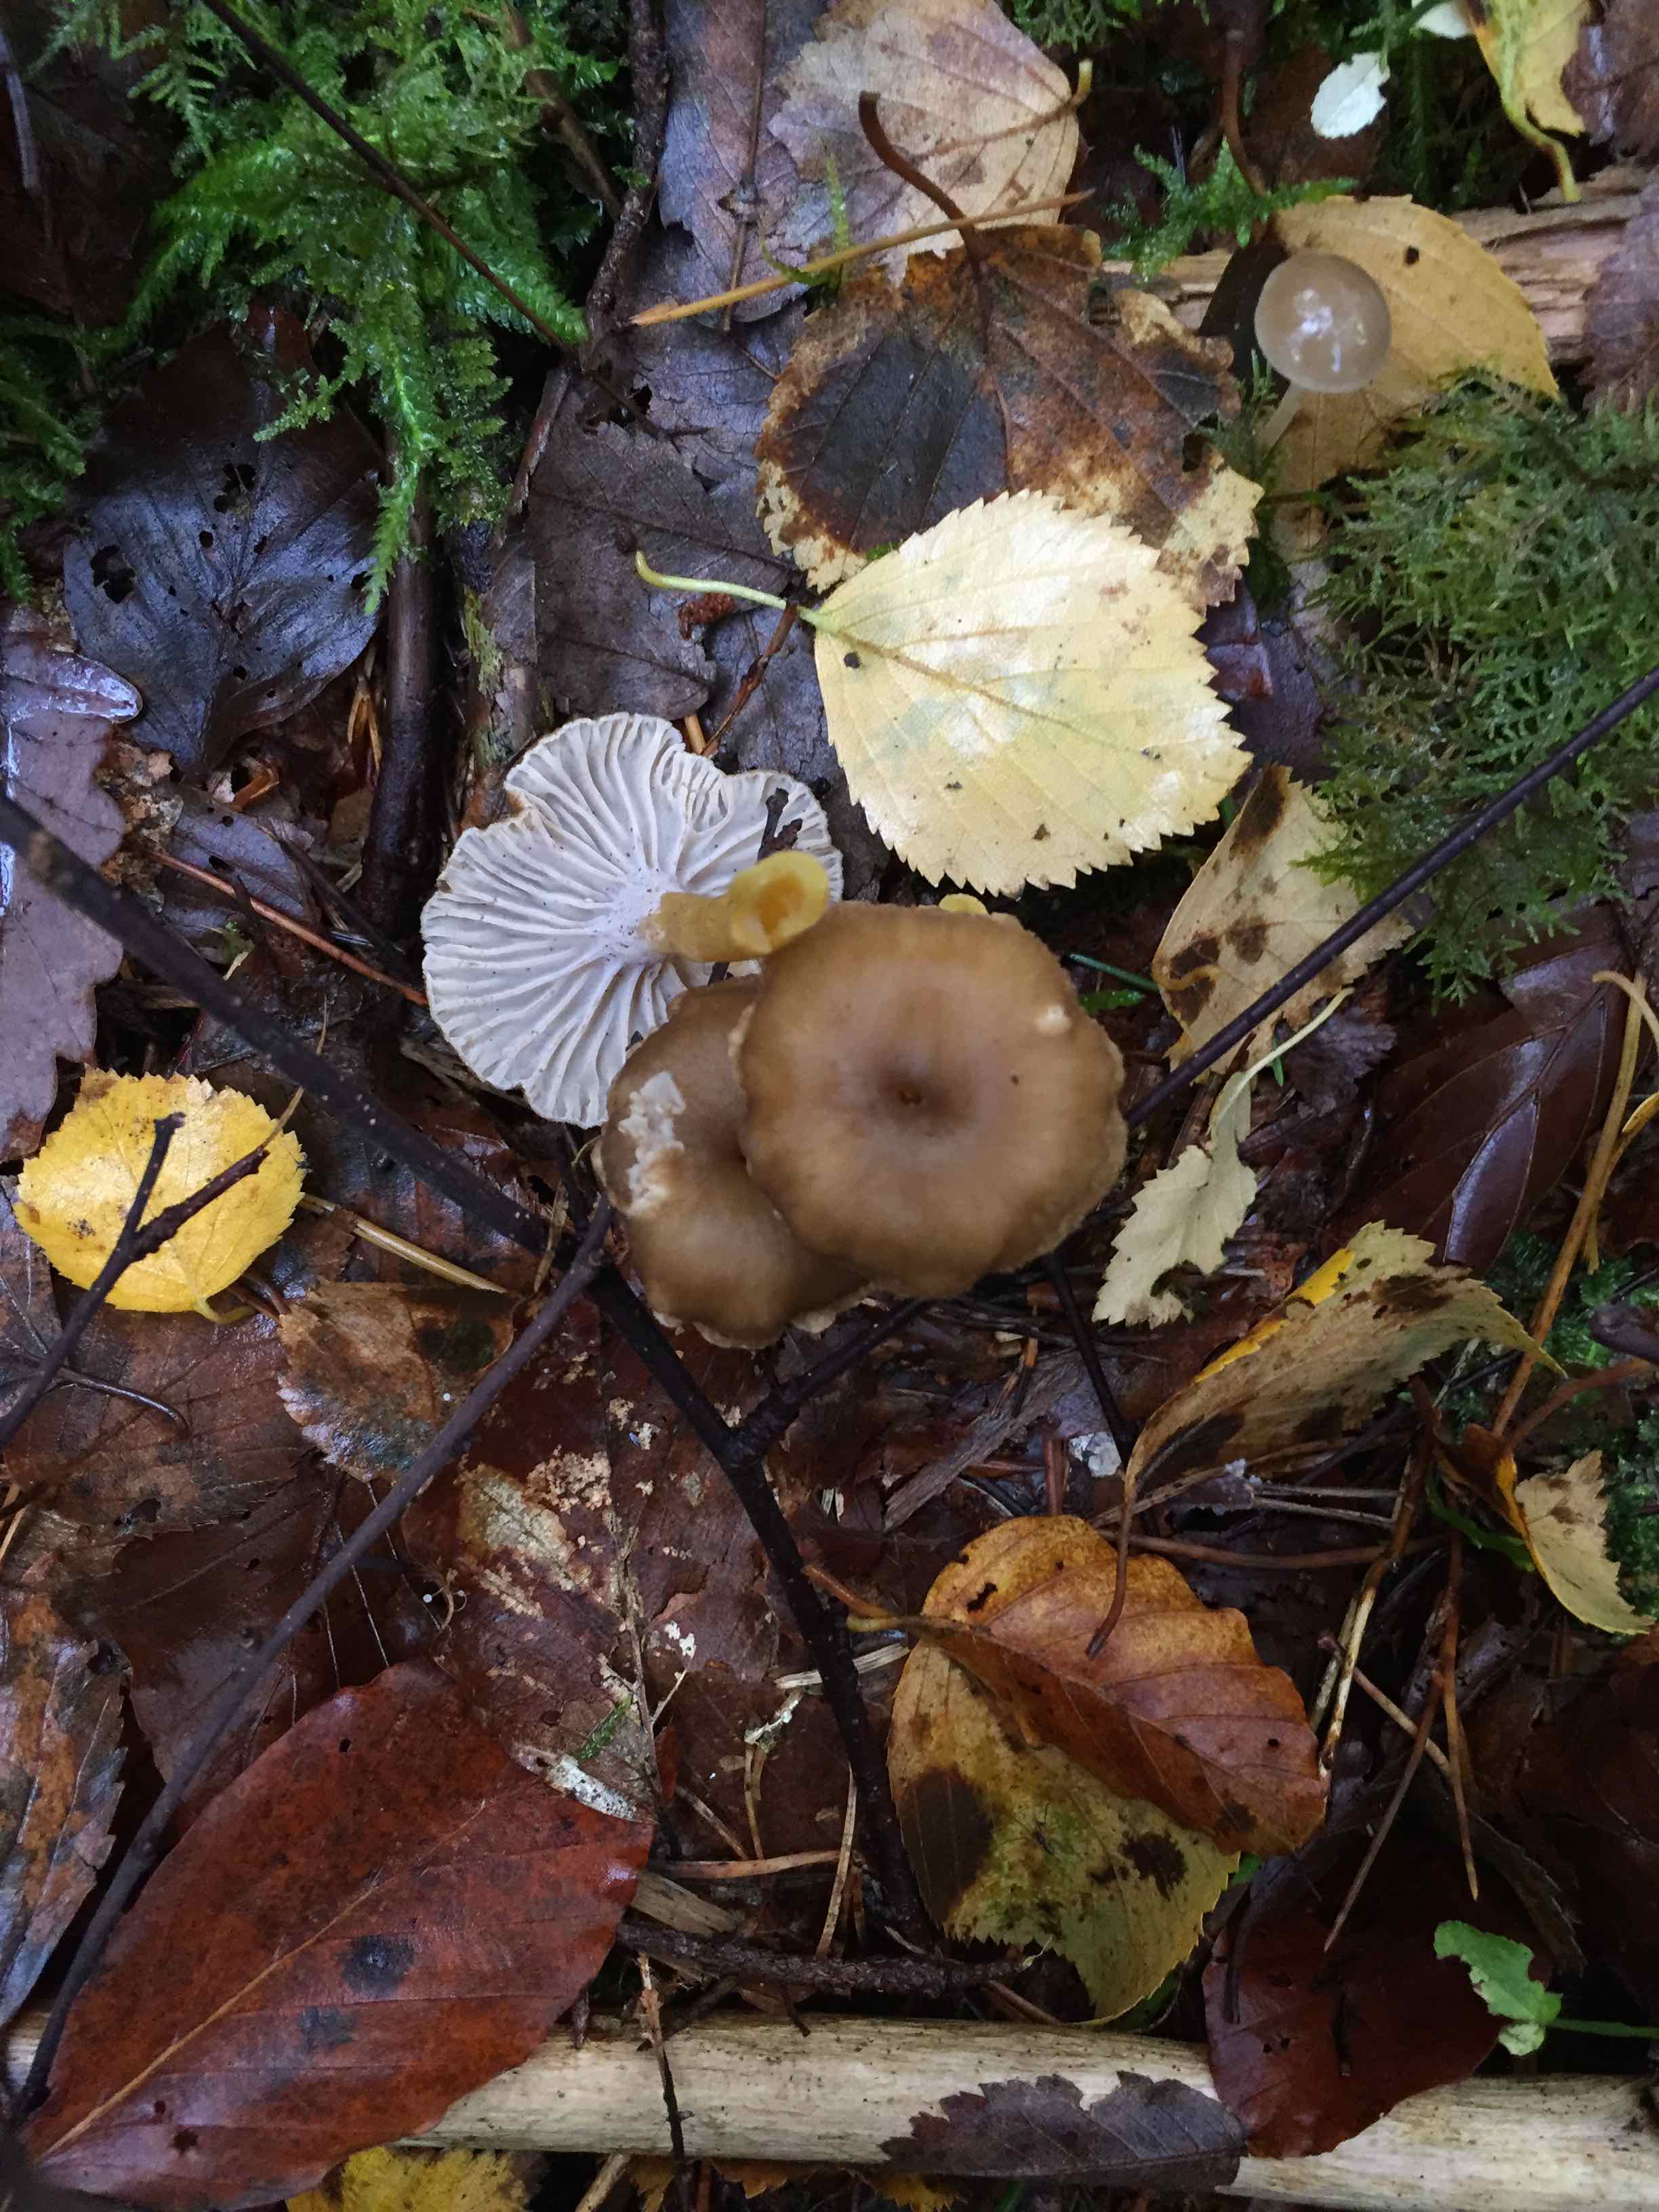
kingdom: Fungi
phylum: Basidiomycota
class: Agaricomycetes
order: Cantharellales
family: Hydnaceae
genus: Craterellus
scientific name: Craterellus tubaeformis
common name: tragt-kantarel
